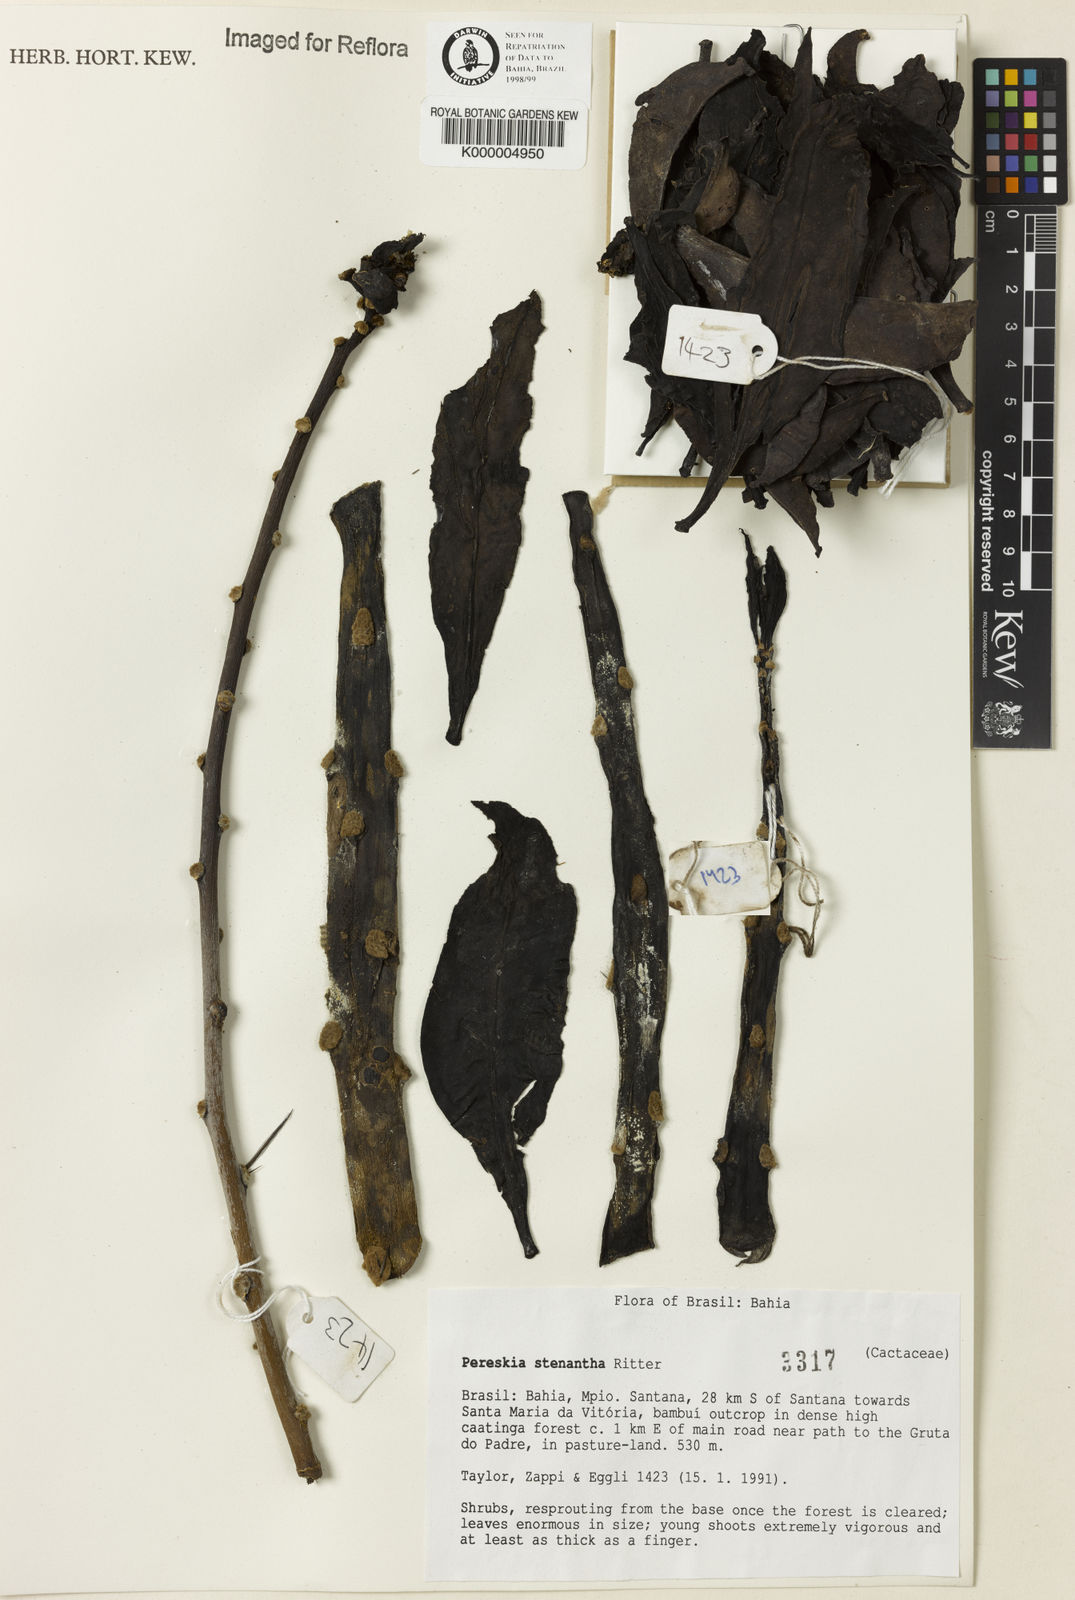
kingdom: Plantae
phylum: Tracheophyta
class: Magnoliopsida
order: Caryophyllales
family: Cactaceae
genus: Pereskia
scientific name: Pereskia stenantha
